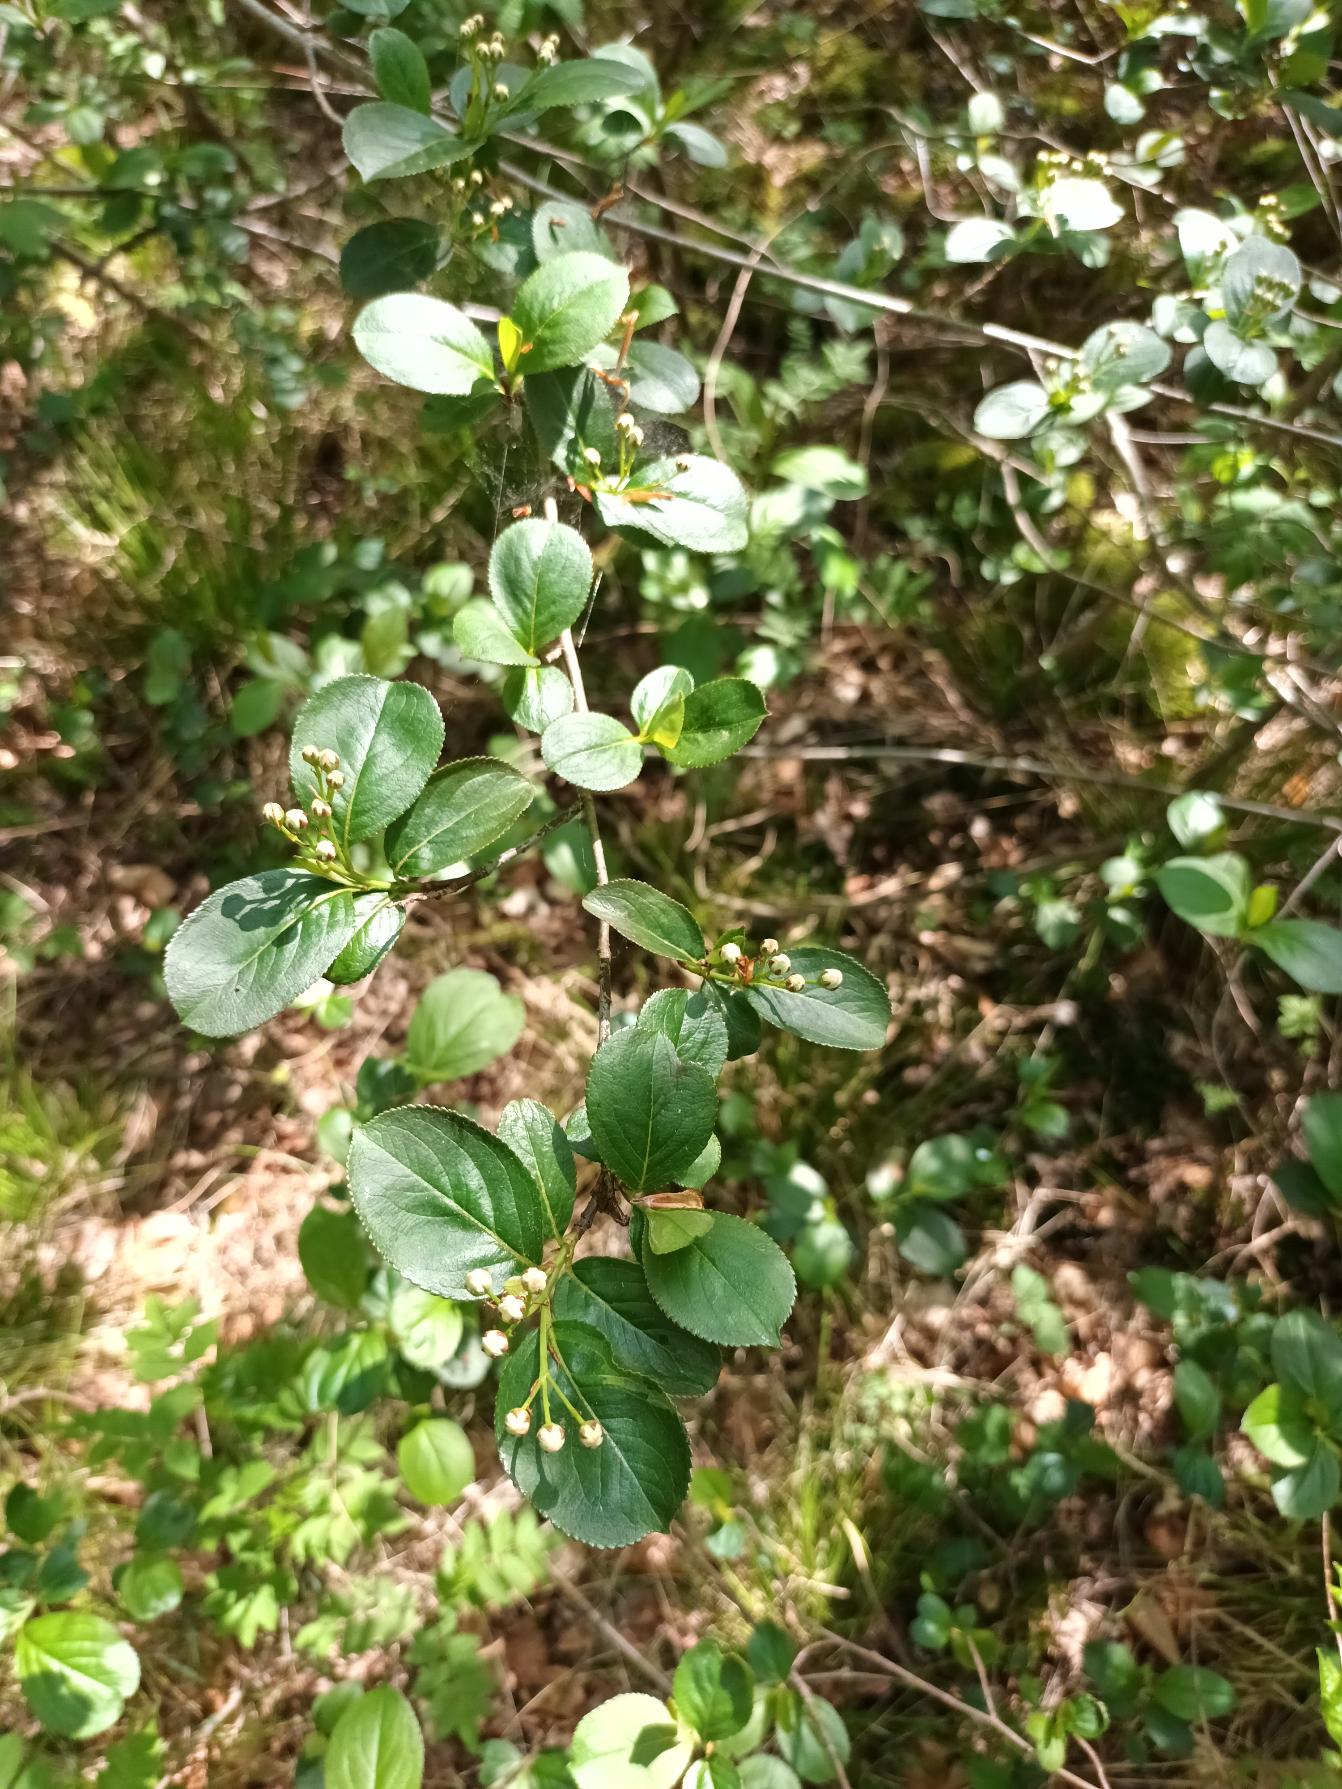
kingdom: Plantae
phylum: Tracheophyta
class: Magnoliopsida
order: Rosales
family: Rosaceae
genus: Aronia
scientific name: Aronia melanocarpa
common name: Sortfrugtet surbær
